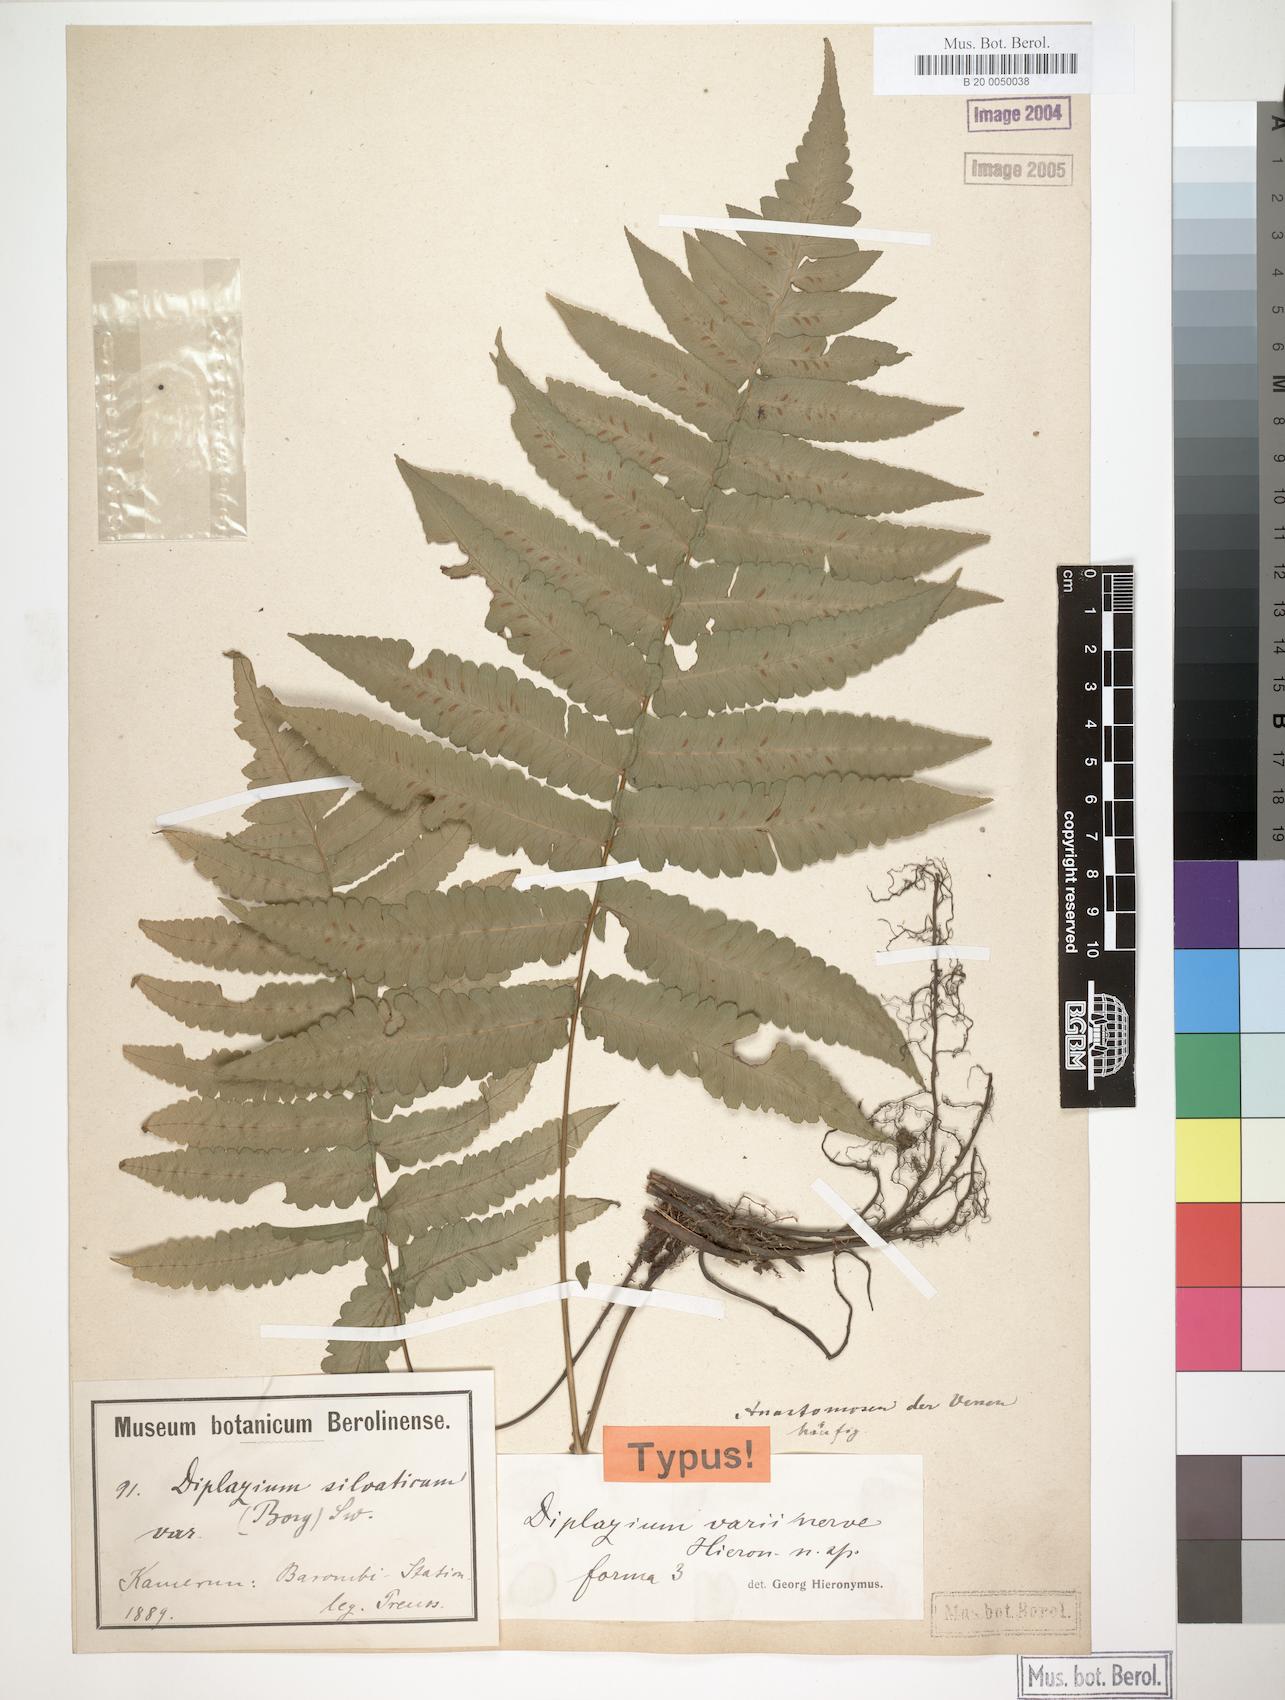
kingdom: Plantae
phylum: Tracheophyta
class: Polypodiopsida
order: Polypodiales
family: Athyriaceae
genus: Diplazium
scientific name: Diplazium welwitschii
